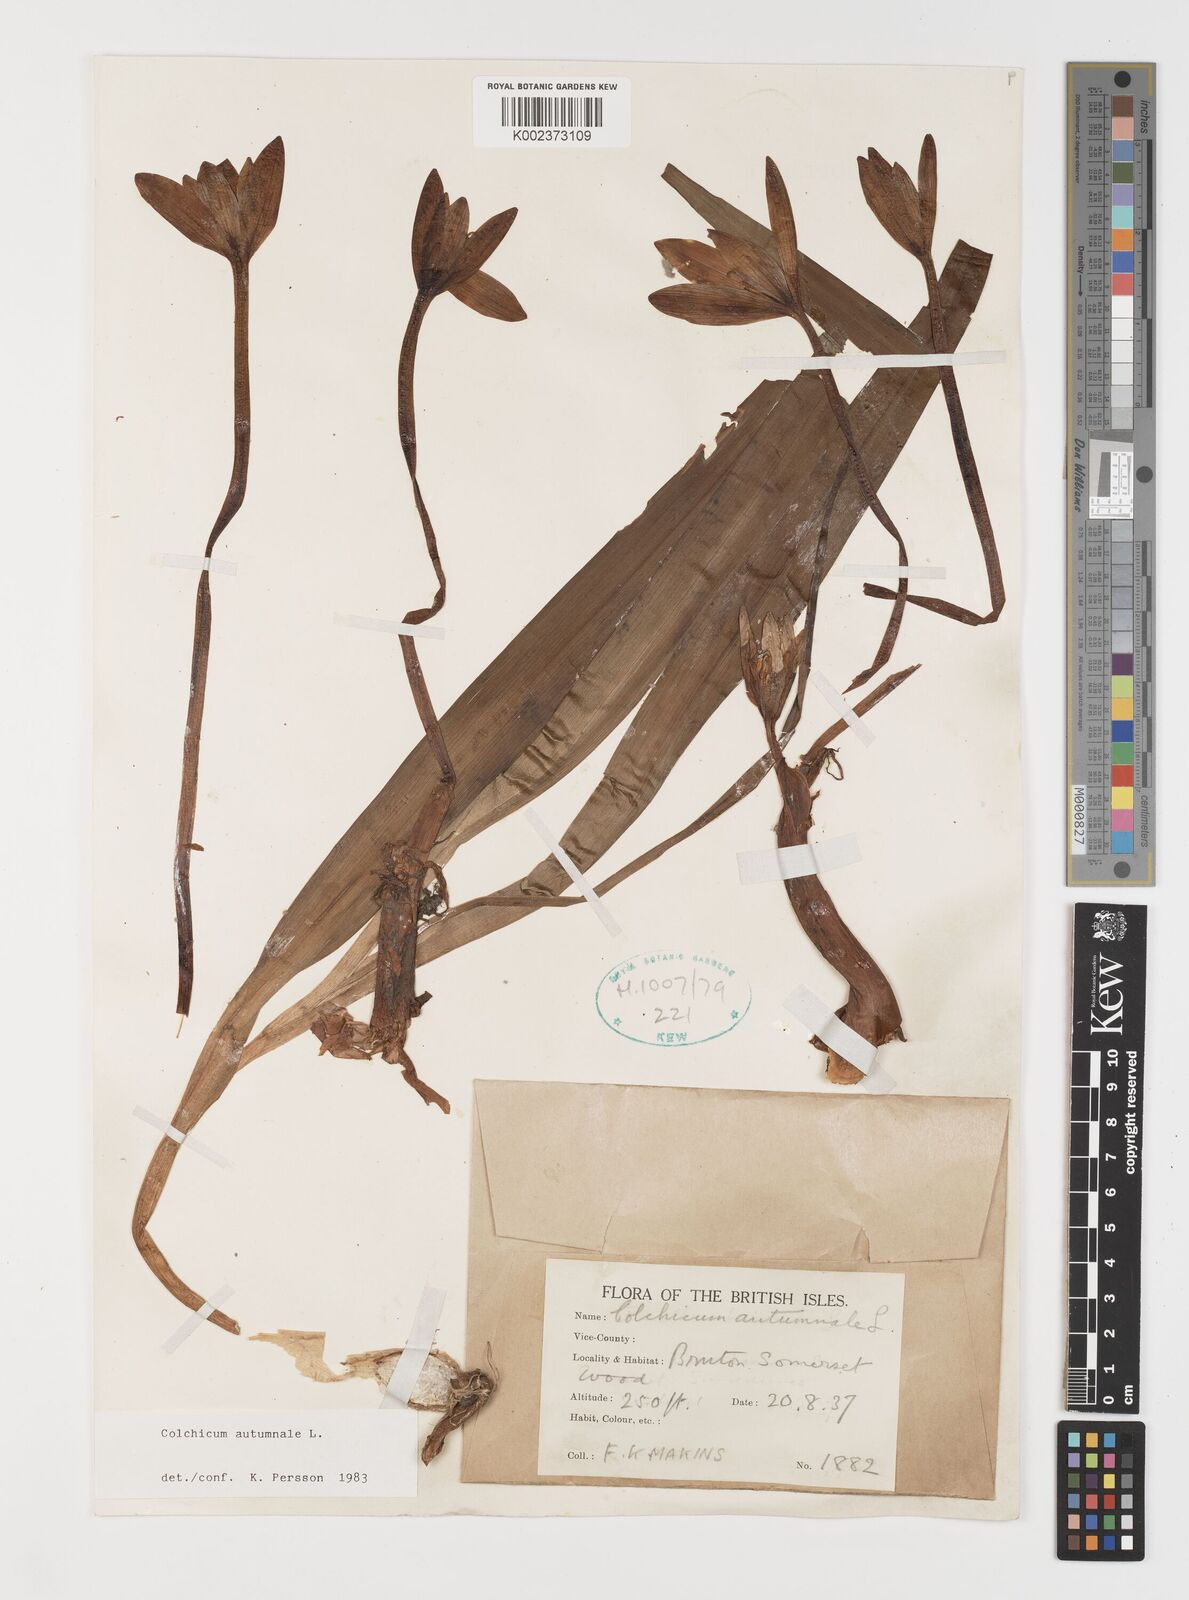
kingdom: Plantae
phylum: Tracheophyta
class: Liliopsida
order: Liliales
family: Colchicaceae
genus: Colchicum
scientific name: Colchicum autumnale
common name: Autumn crocus
